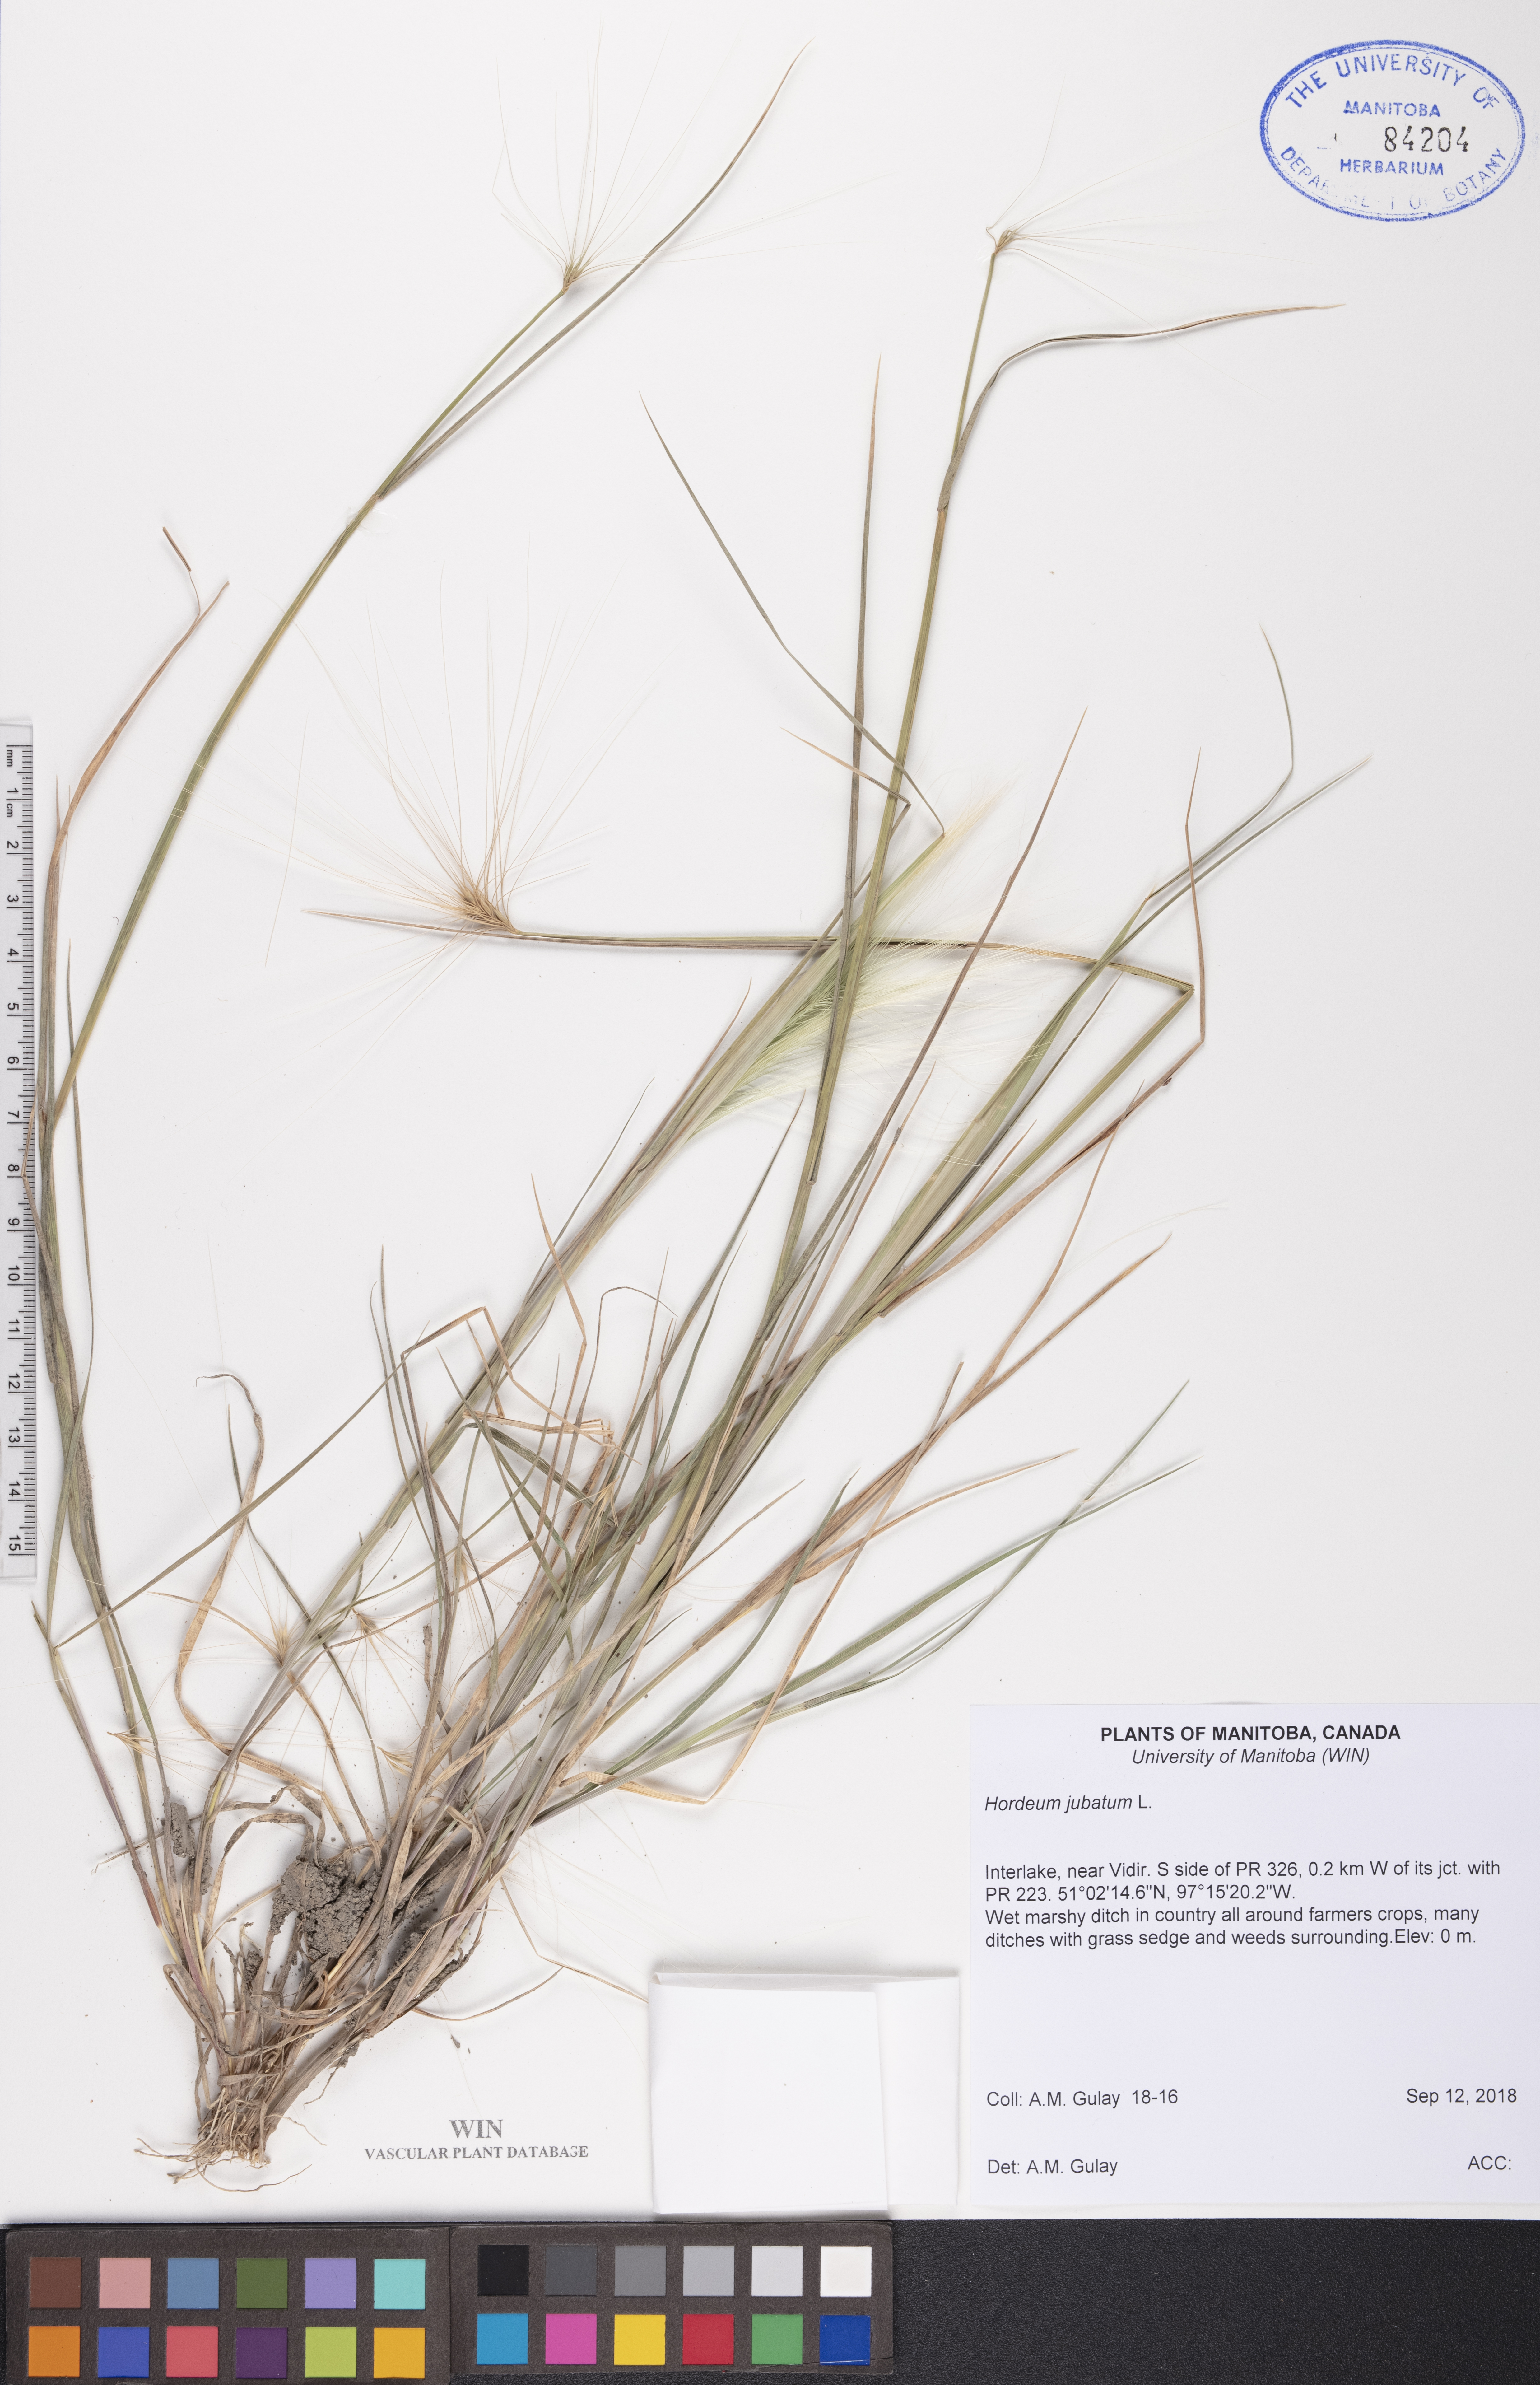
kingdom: Plantae
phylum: Tracheophyta
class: Liliopsida
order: Poales
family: Poaceae
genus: Hordeum
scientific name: Hordeum jubatum
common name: Foxtail barley
